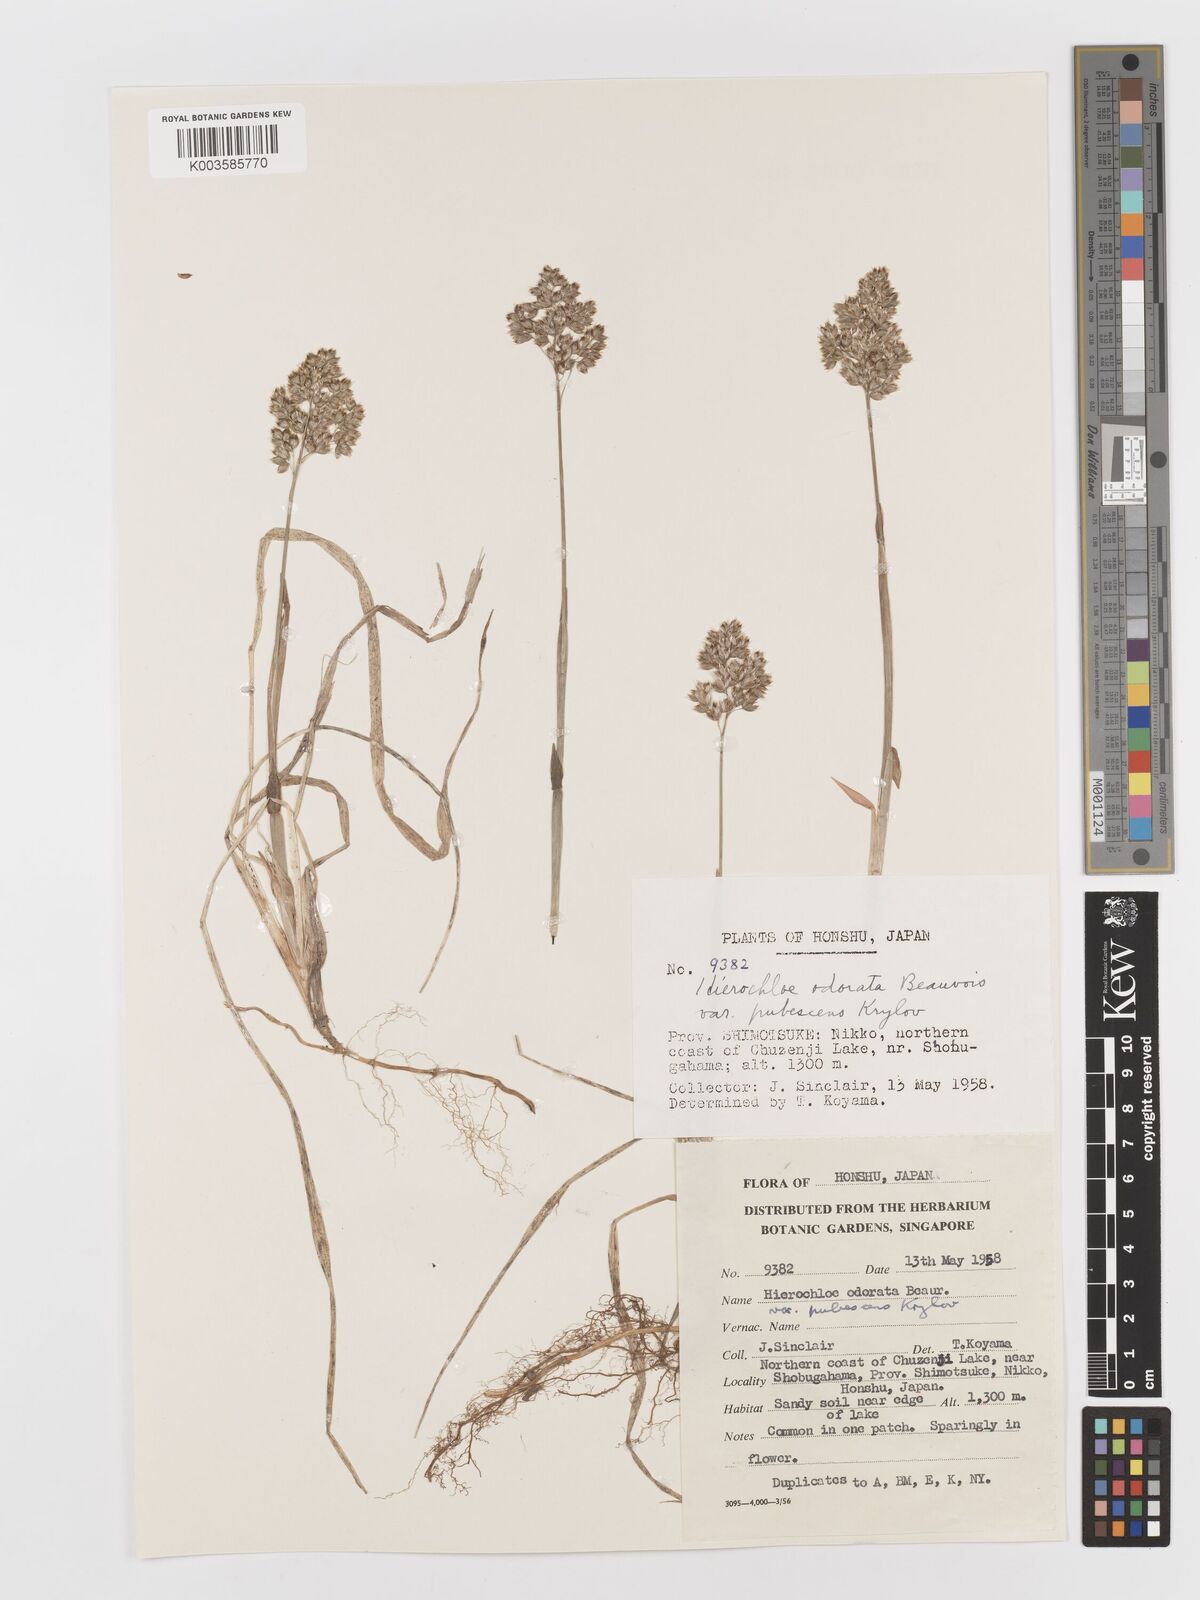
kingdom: Plantae
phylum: Tracheophyta
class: Liliopsida
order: Poales
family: Poaceae
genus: Anthoxanthum
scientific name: Anthoxanthum nitens
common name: Holy grass
